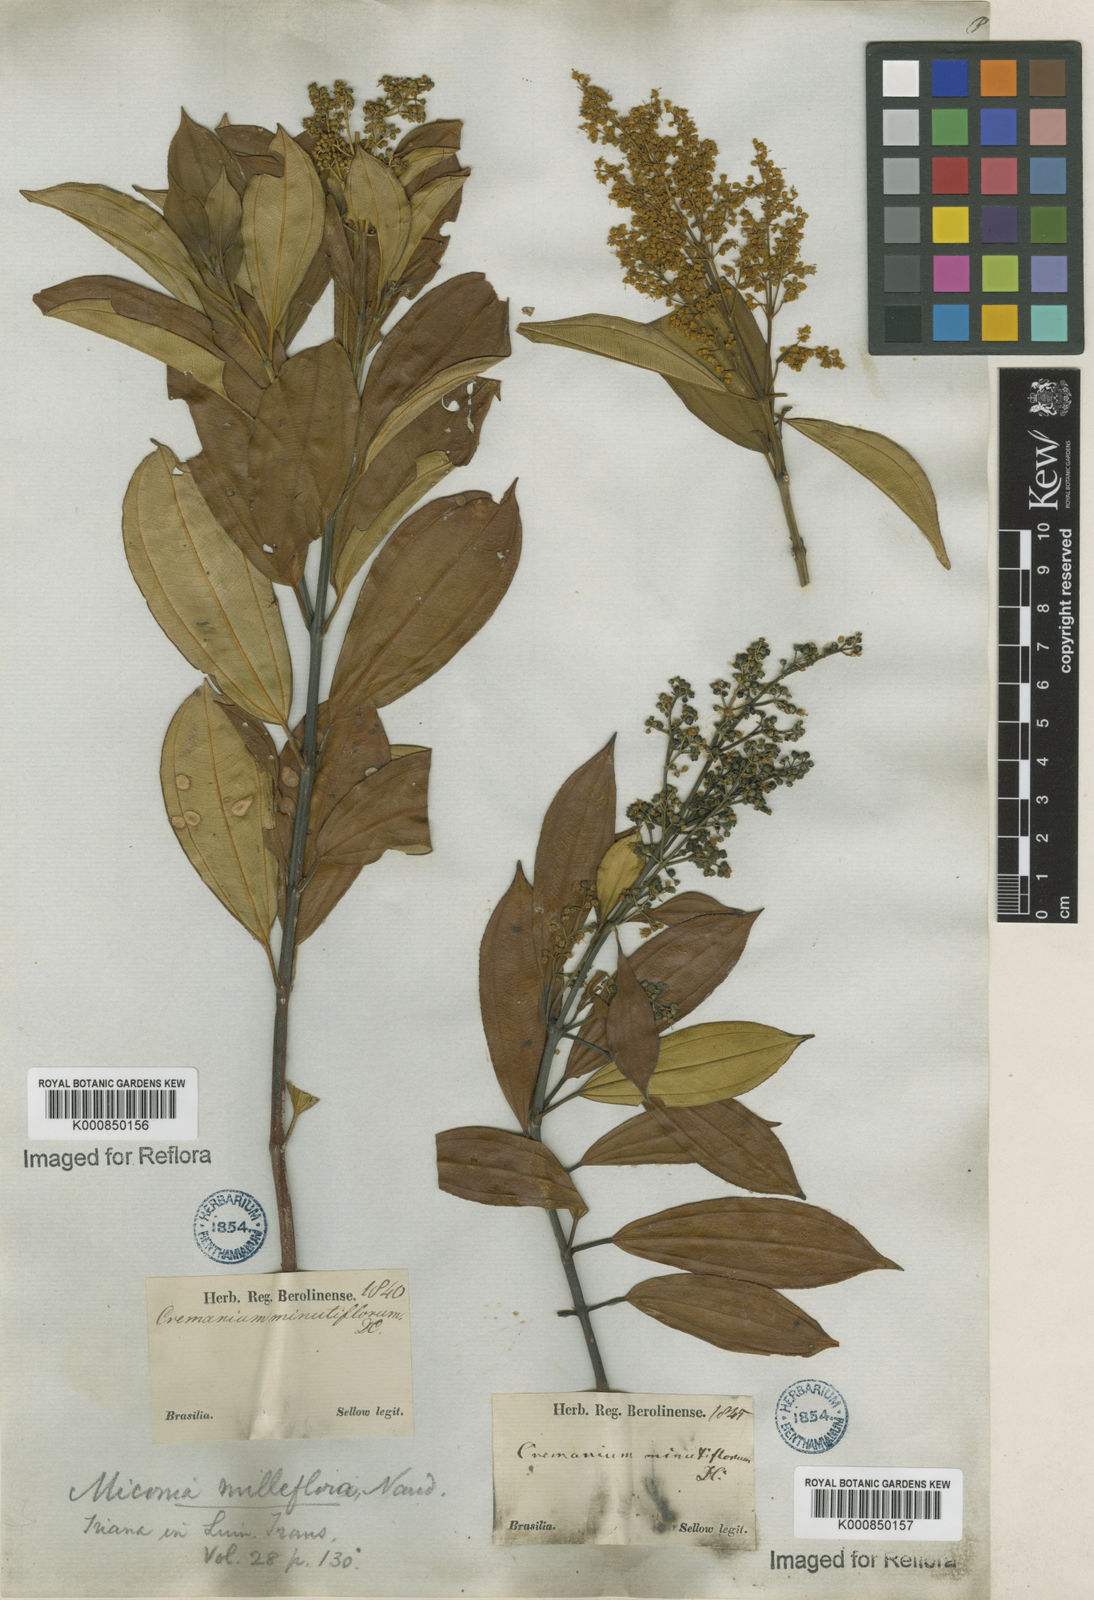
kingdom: Plantae
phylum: Tracheophyta
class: Magnoliopsida
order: Myrtales
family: Melastomataceae
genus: Miconia
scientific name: Miconia
